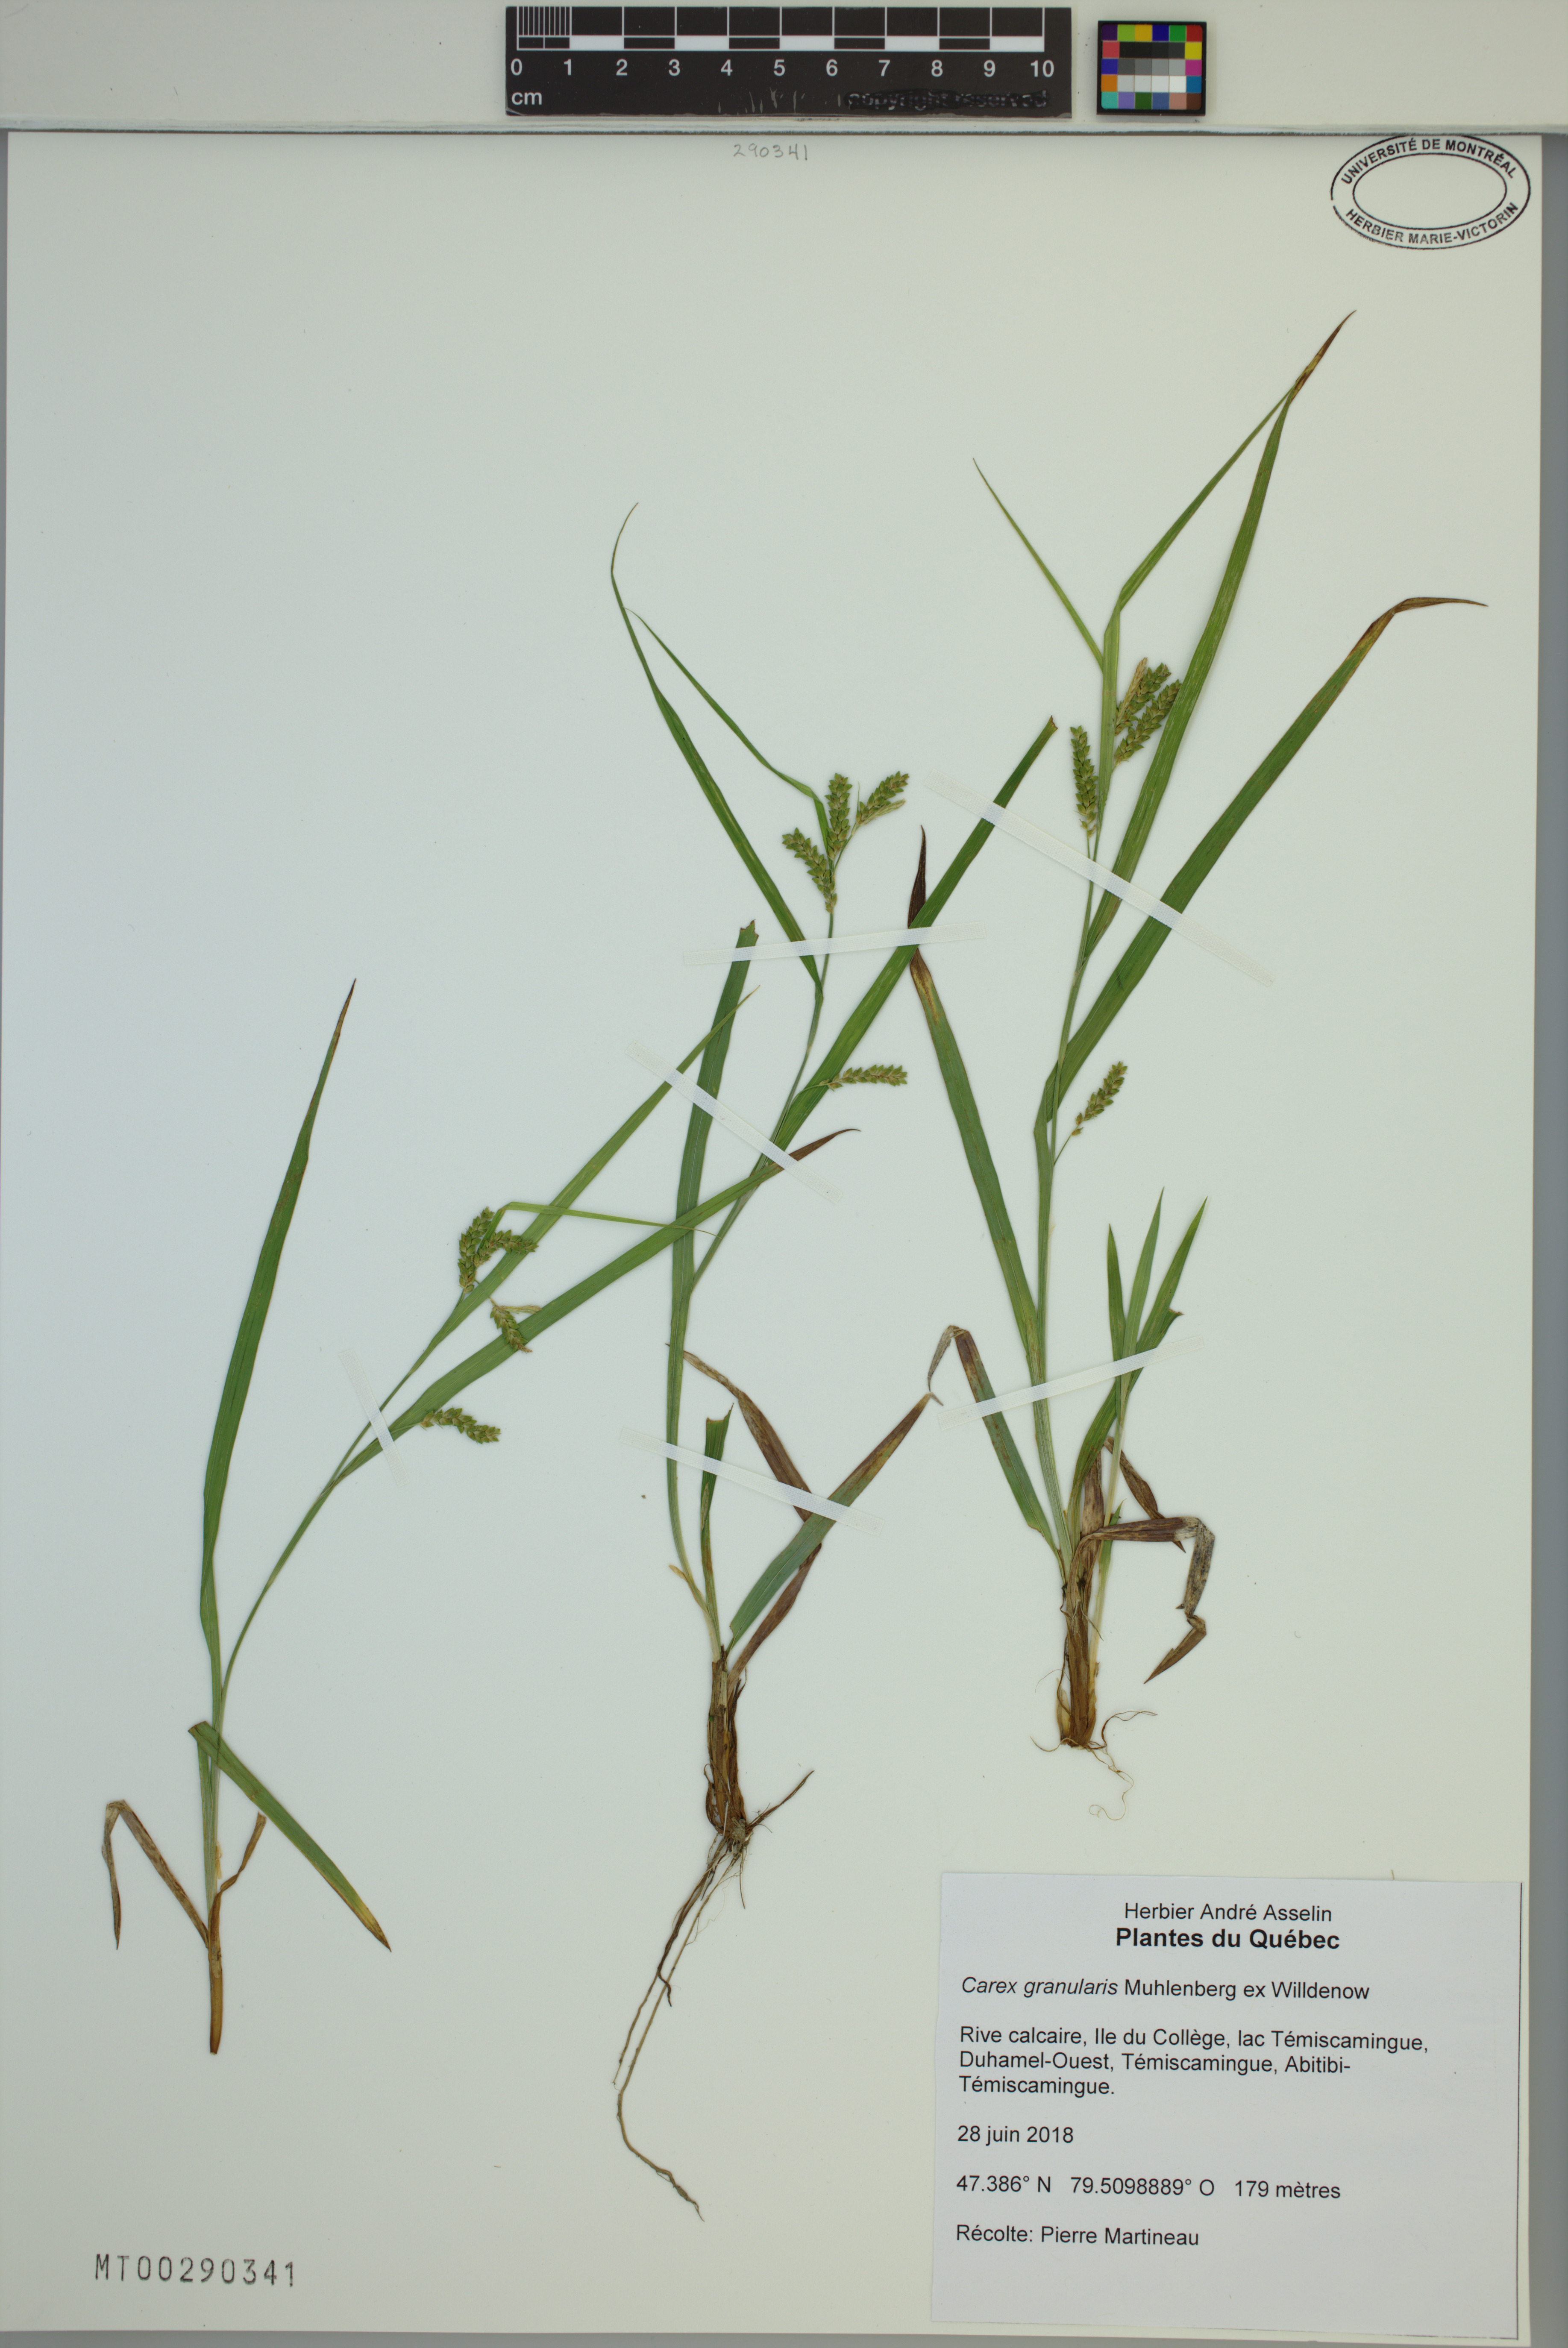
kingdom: Plantae
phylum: Tracheophyta
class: Liliopsida
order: Poales
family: Cyperaceae
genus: Carex
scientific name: Carex granularis
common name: Granular sedge
